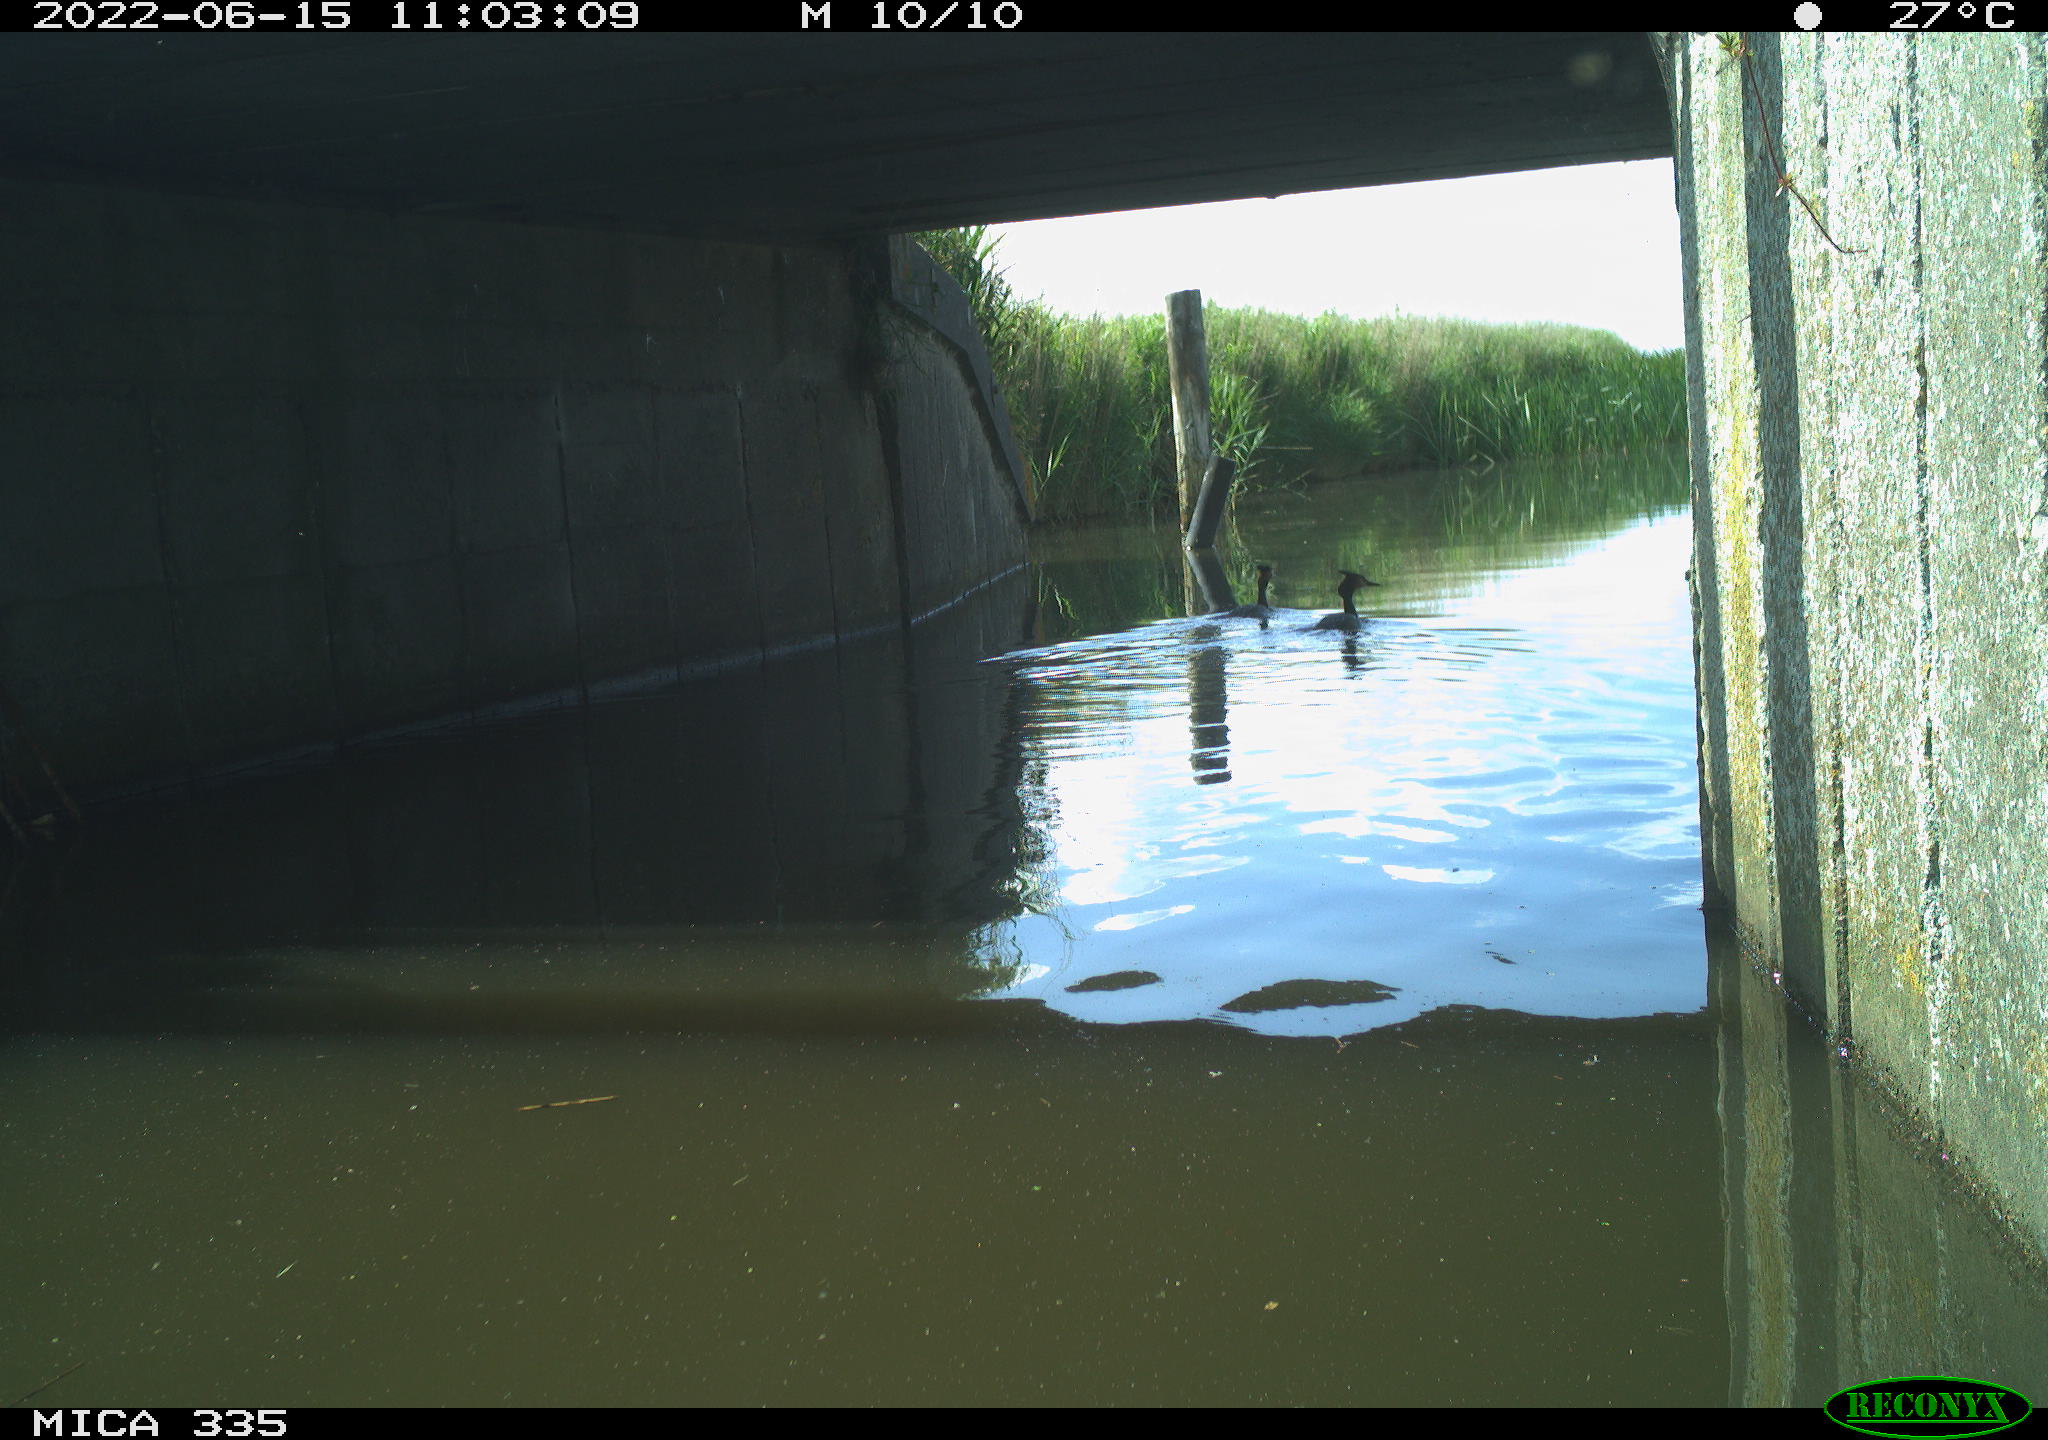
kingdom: Animalia
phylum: Chordata
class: Aves
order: Podicipediformes
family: Podicipedidae
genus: Podiceps
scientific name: Podiceps cristatus
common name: Great crested grebe
